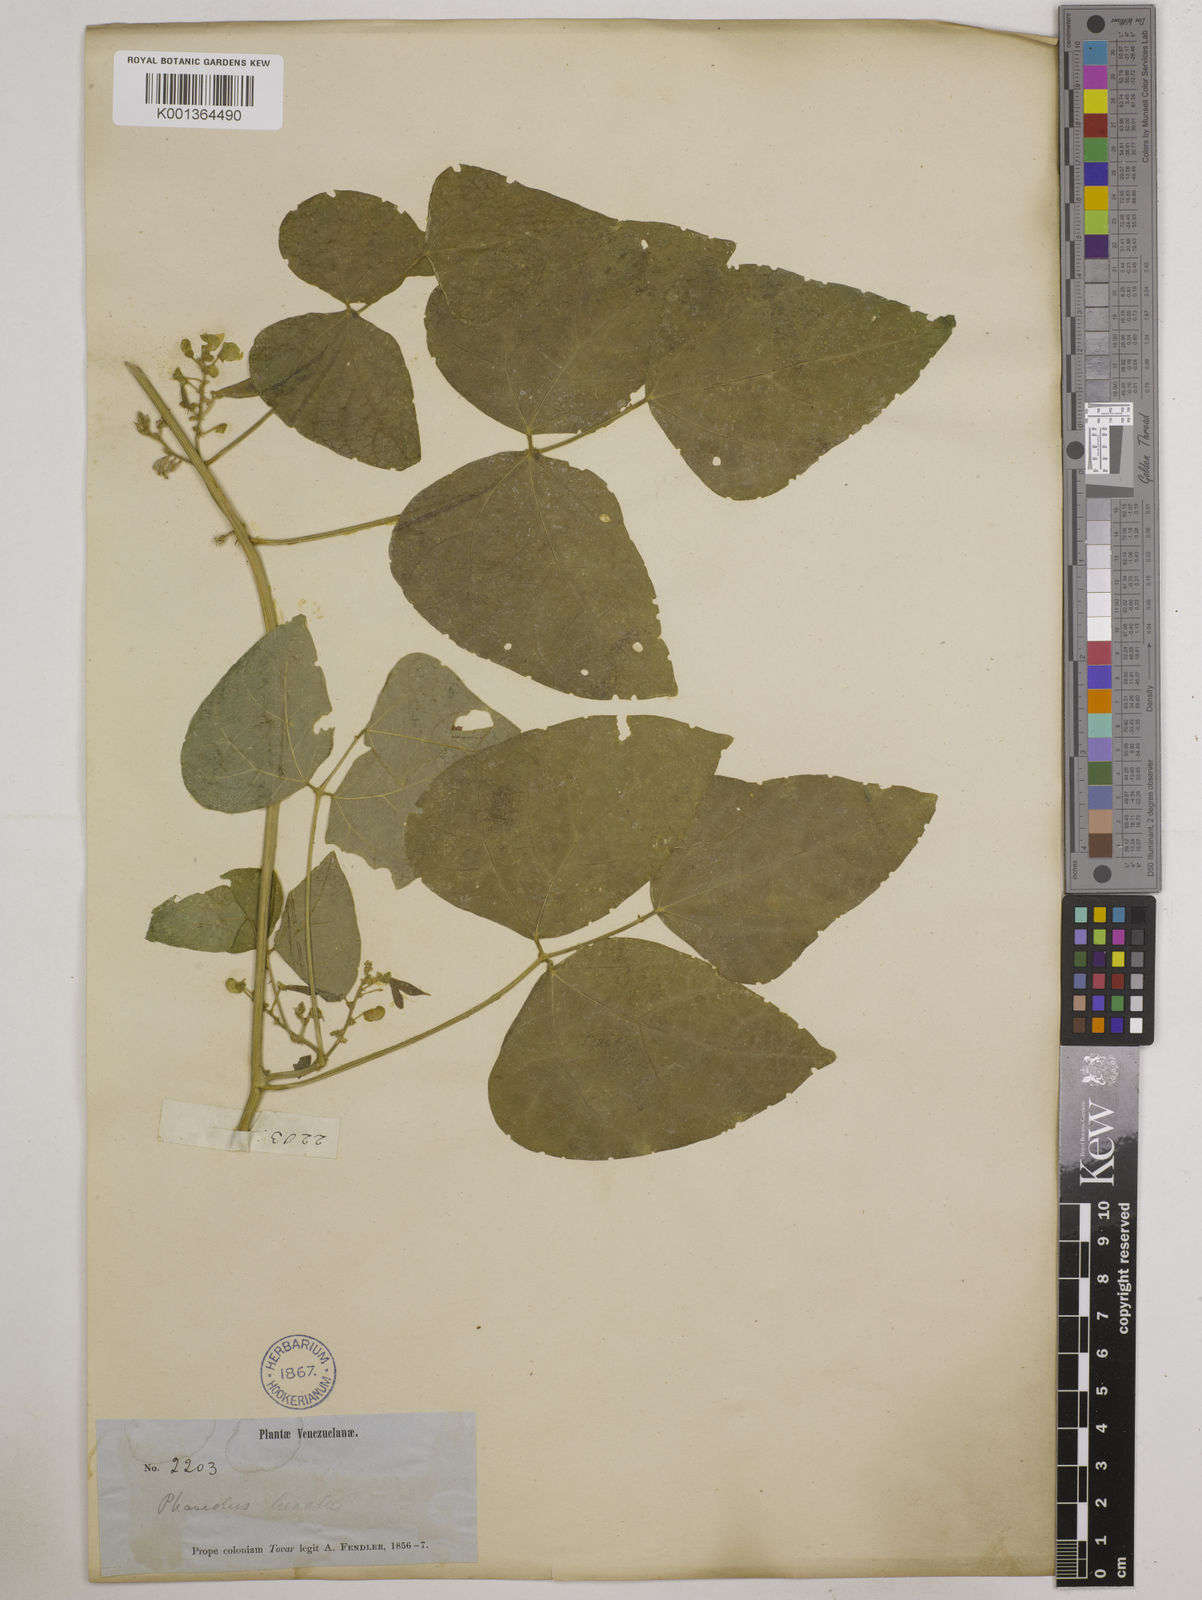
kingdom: Plantae
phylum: Tracheophyta
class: Magnoliopsida
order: Fabales
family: Fabaceae
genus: Phaseolus
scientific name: Phaseolus lunatus
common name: Sieva bean
